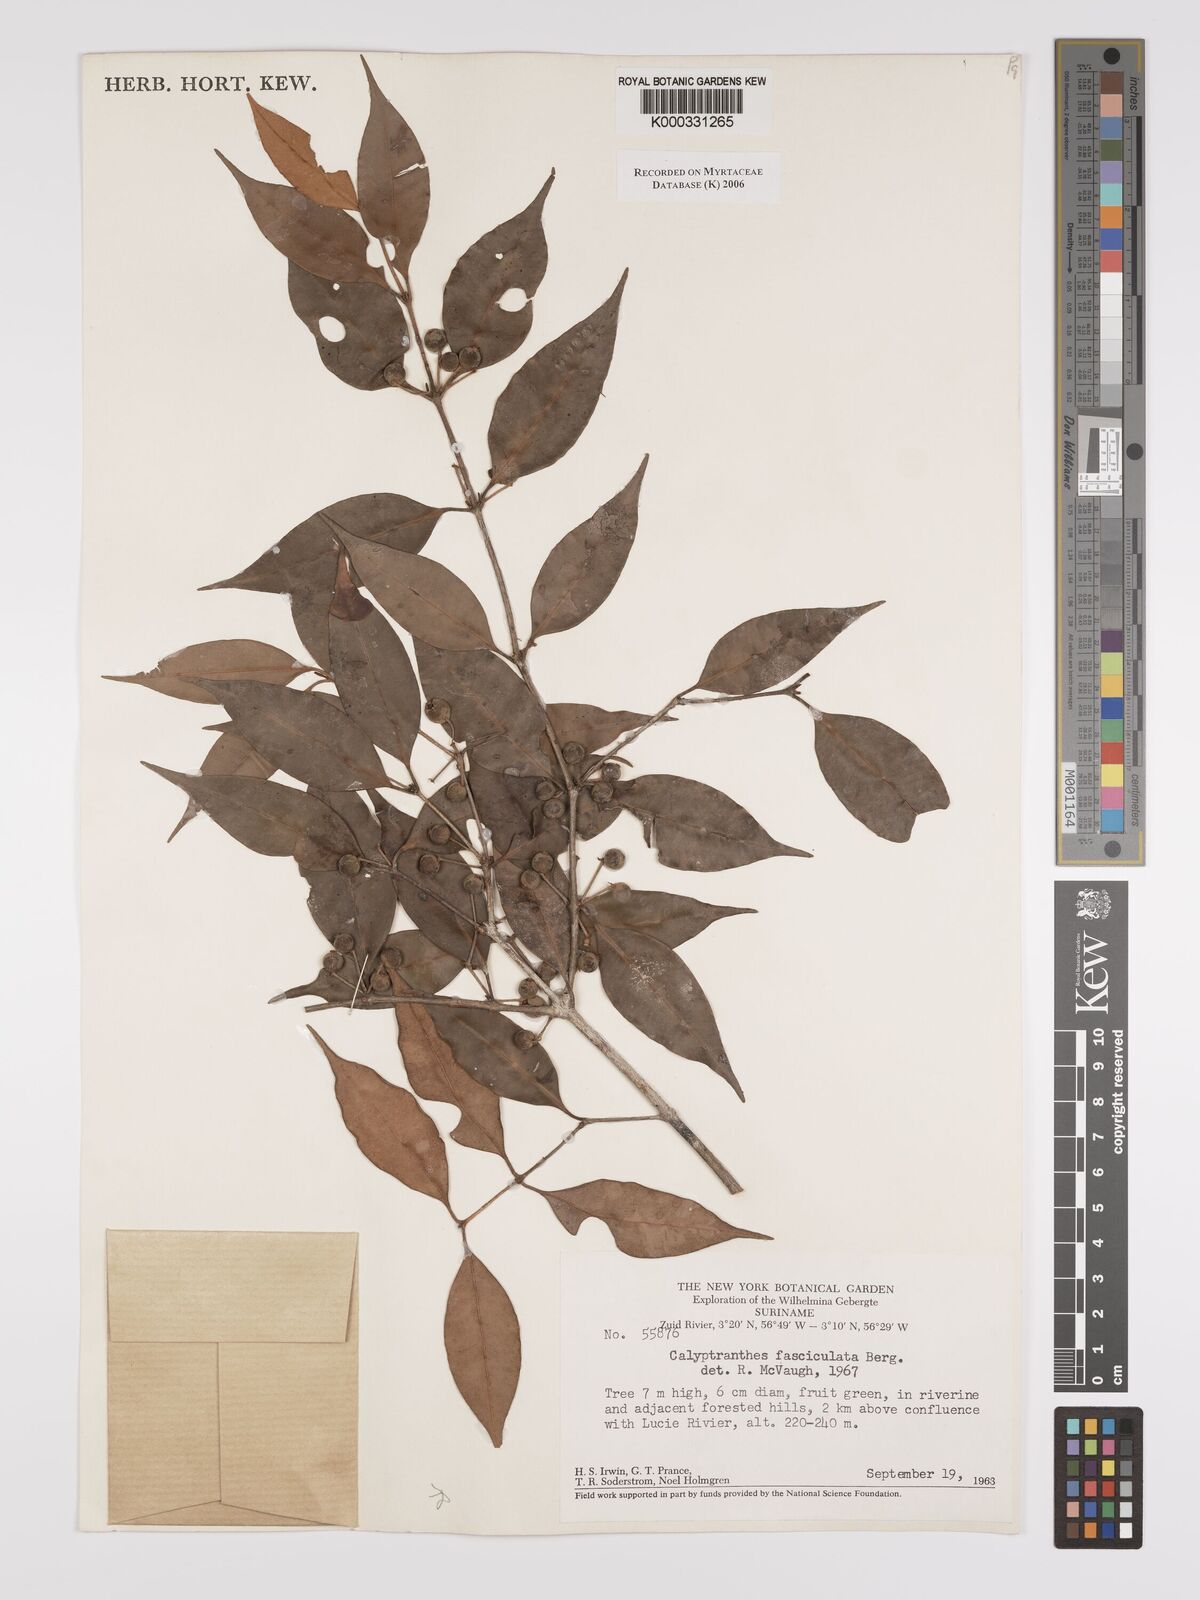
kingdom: Plantae
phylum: Tracheophyta
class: Magnoliopsida
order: Myrtales
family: Myrtaceae
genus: Myrcia
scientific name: Myrcia fasciculata
